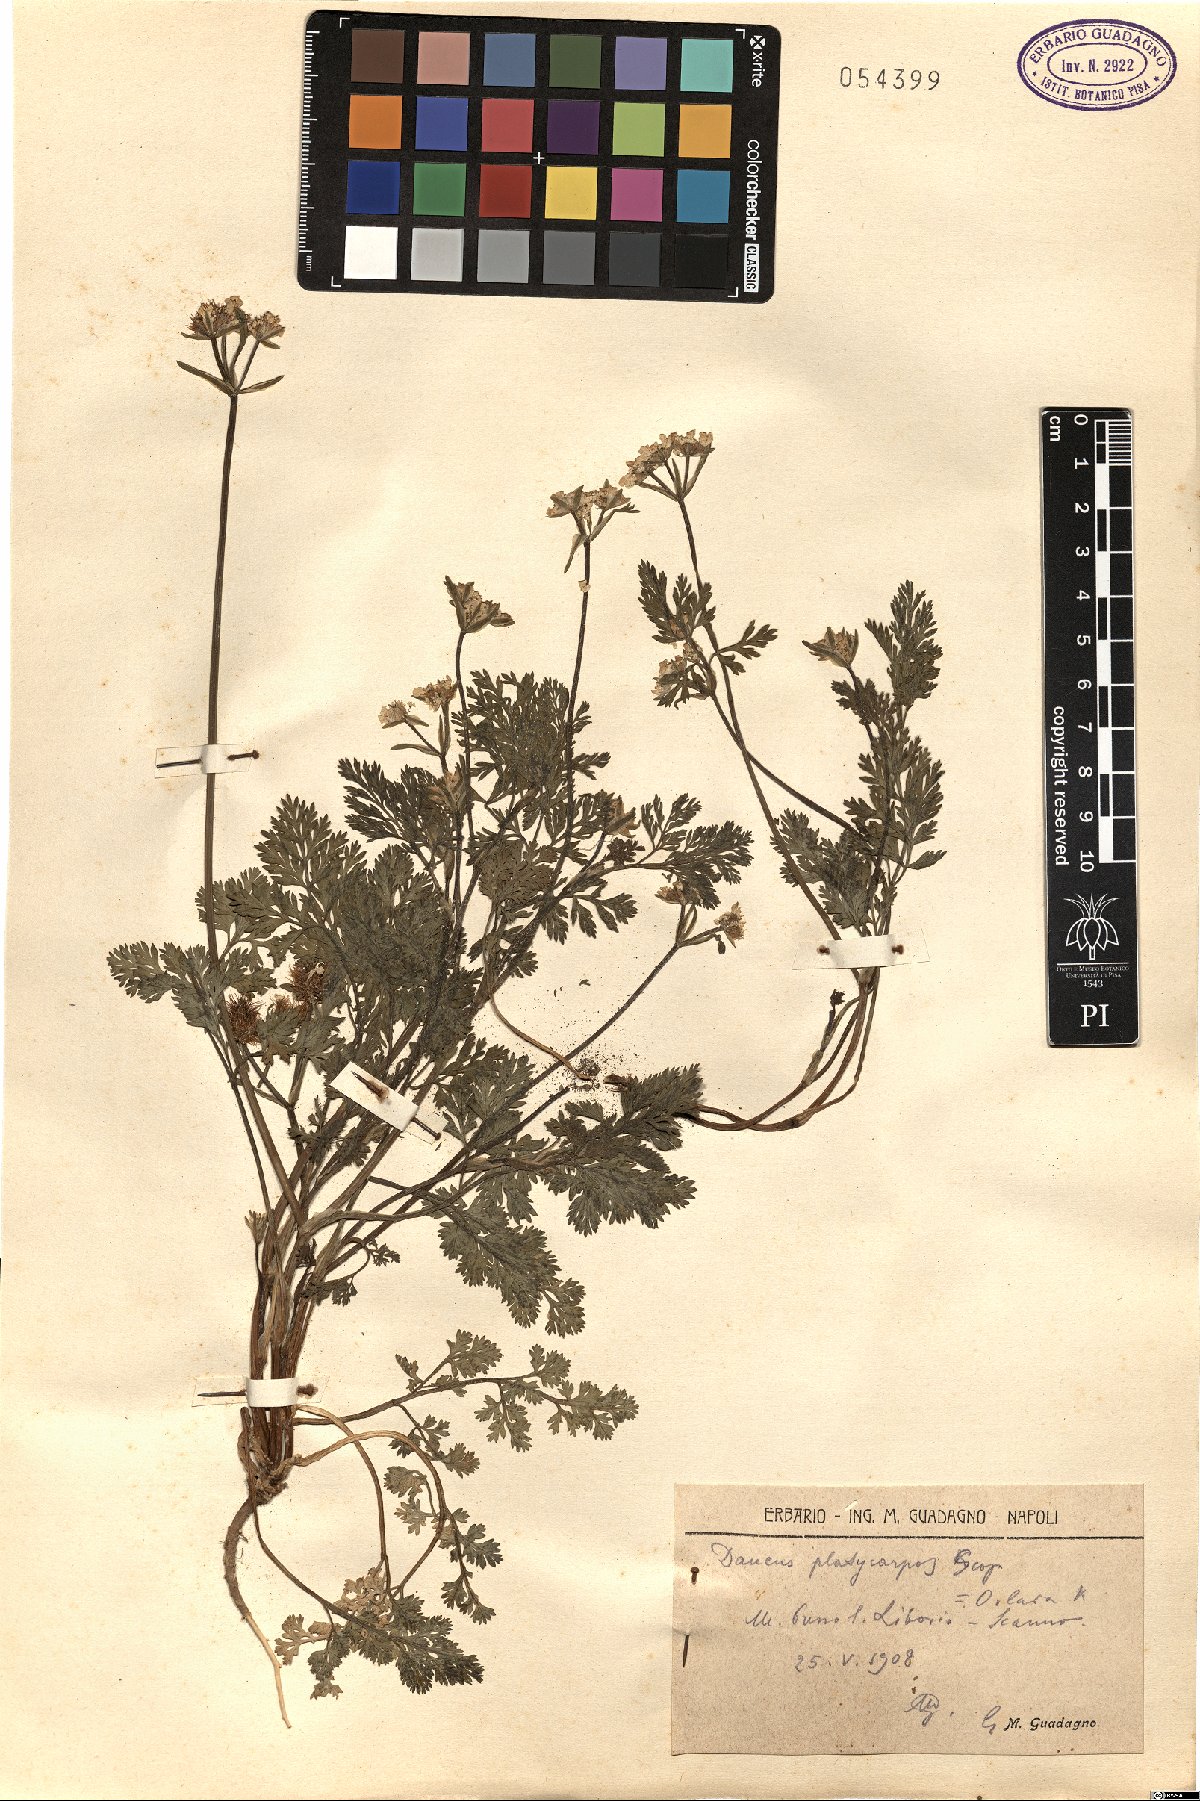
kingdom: Plantae
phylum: Tracheophyta
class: Magnoliopsida
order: Apiales
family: Apiaceae
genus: Caucalis
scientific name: Caucalis platycarpos
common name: Small bur-parsley
